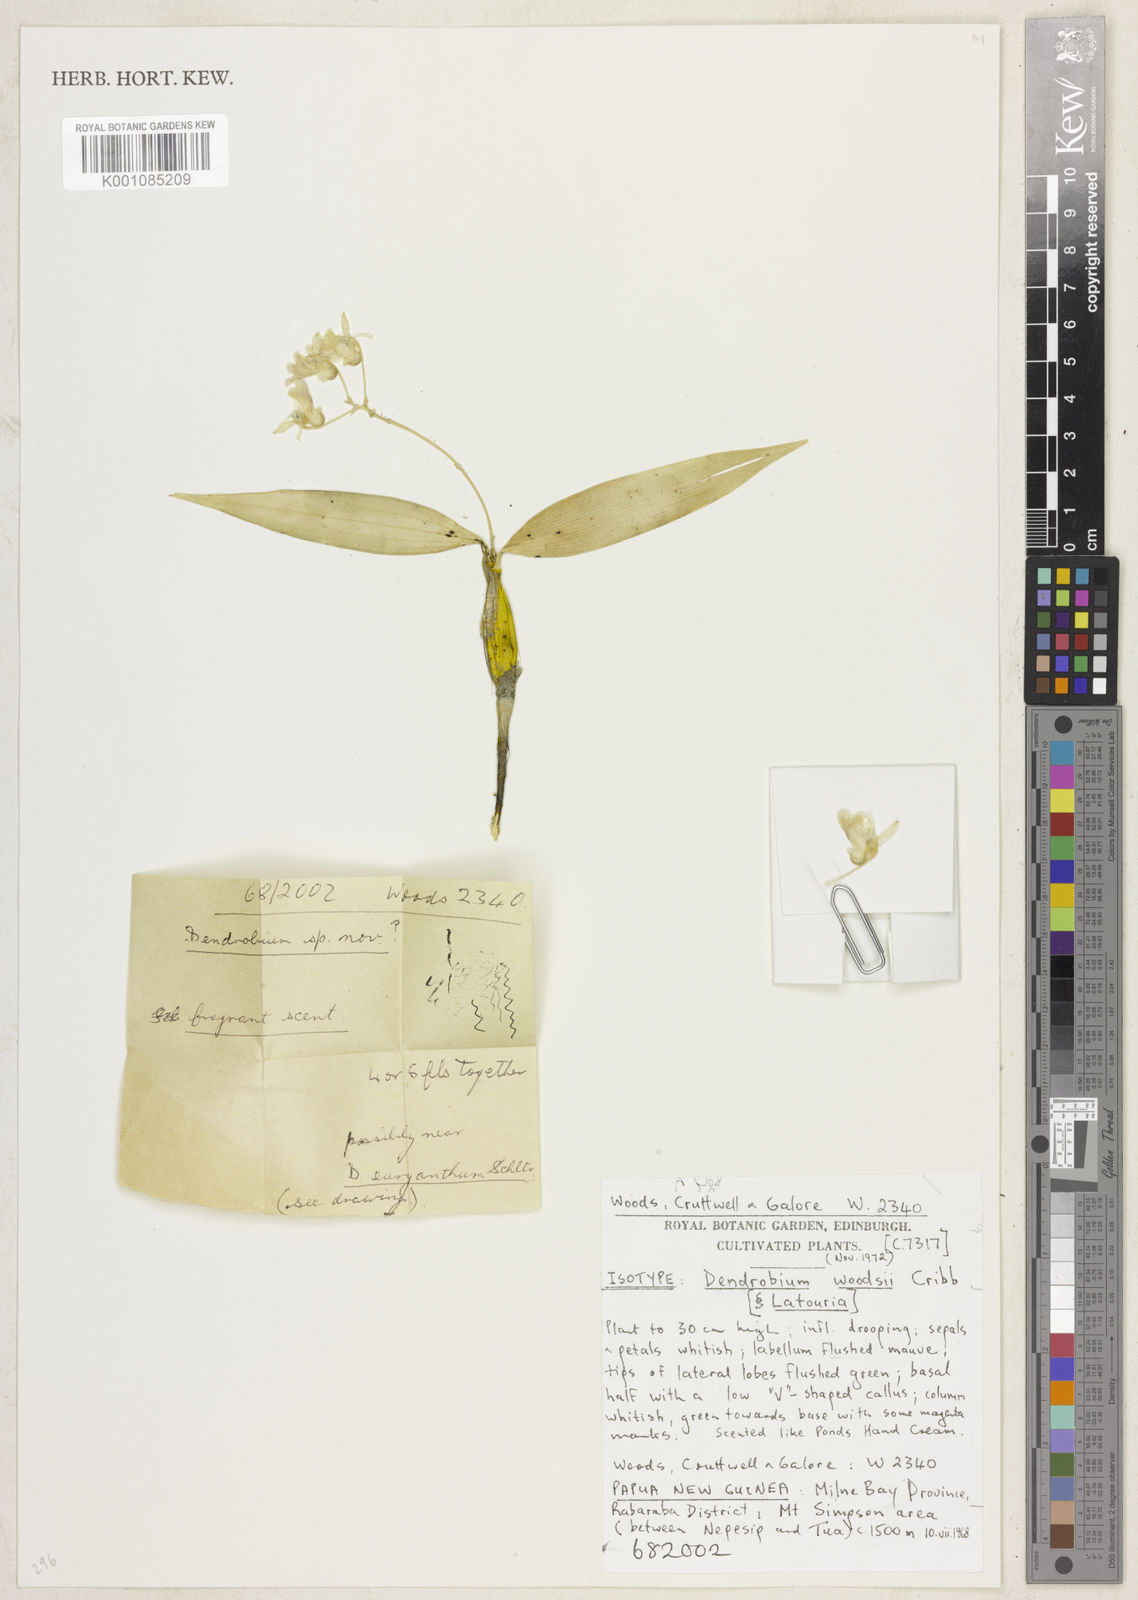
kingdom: Plantae
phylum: Tracheophyta
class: Liliopsida
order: Asparagales
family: Orchidaceae
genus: Dendrobium
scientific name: Dendrobium
